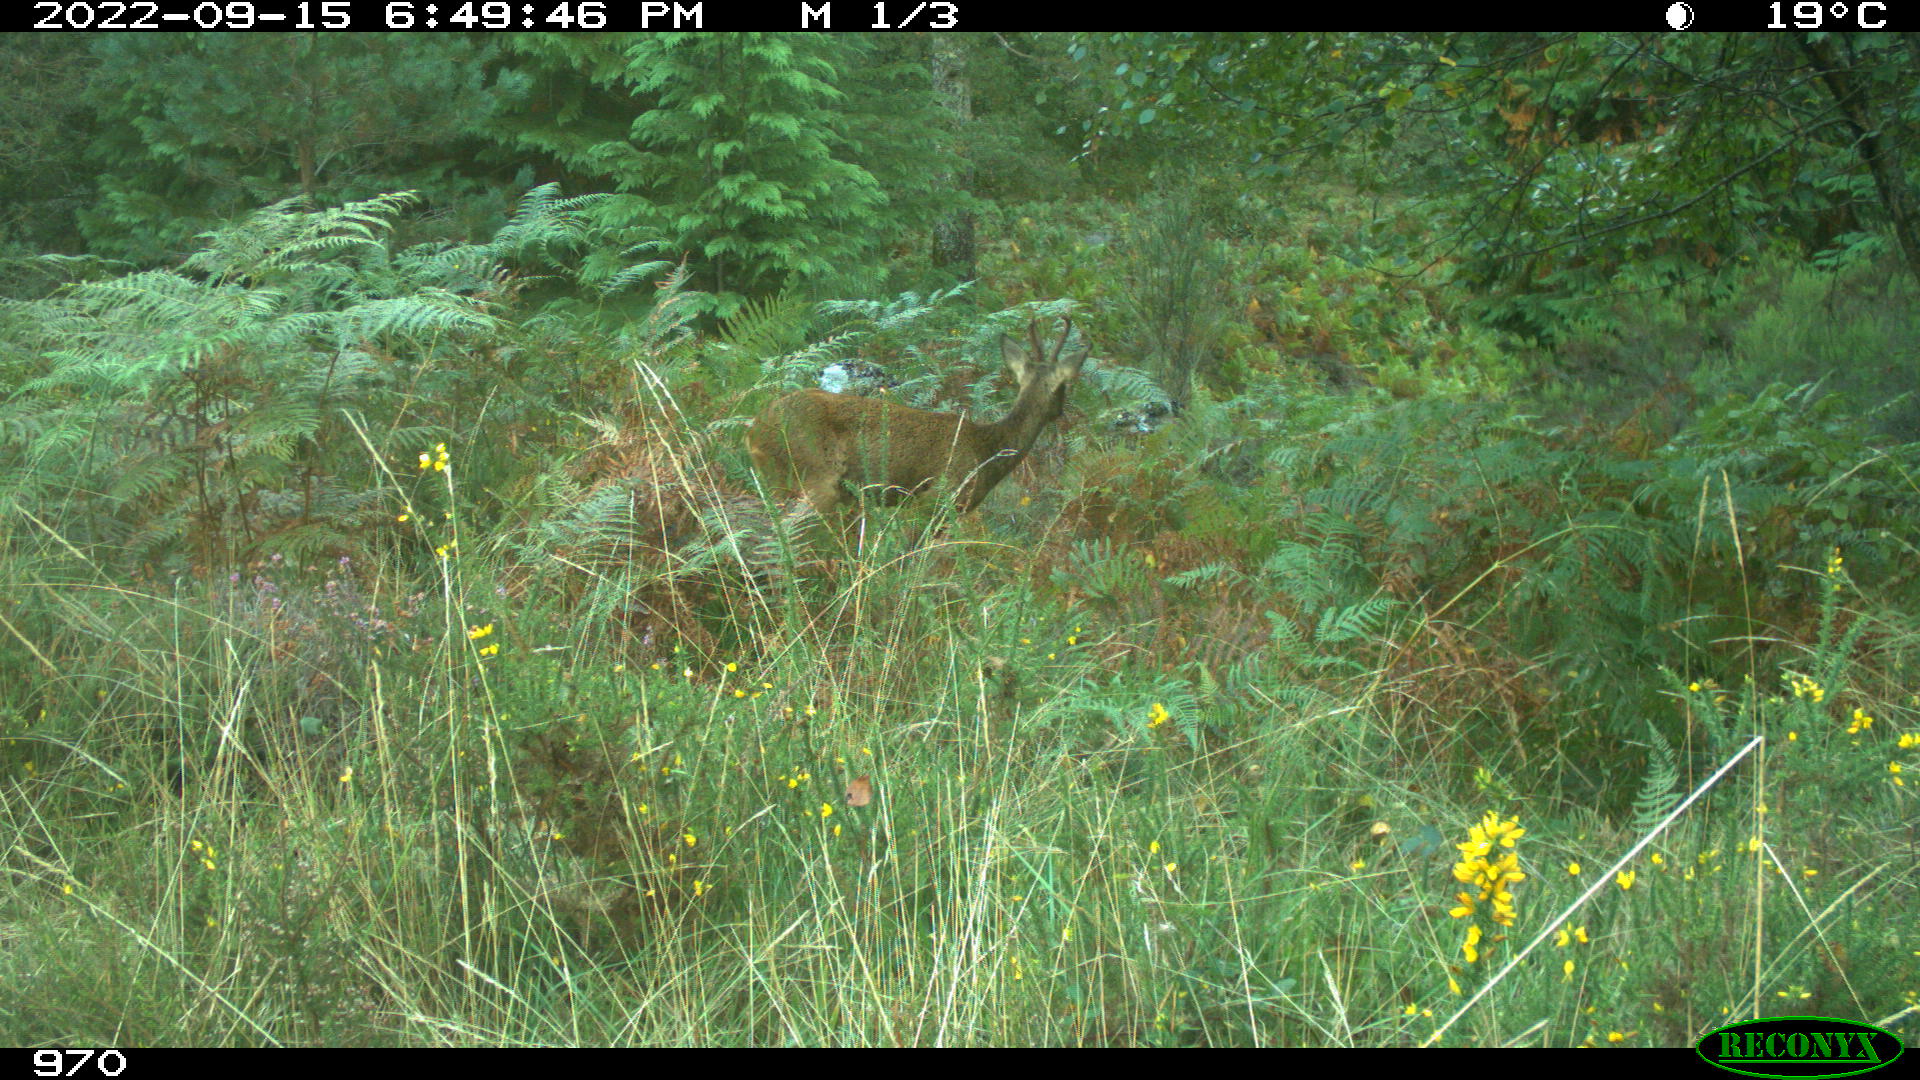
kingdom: Animalia
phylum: Chordata
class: Mammalia
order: Artiodactyla
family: Cervidae
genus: Capreolus
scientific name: Capreolus capreolus
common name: Western roe deer
